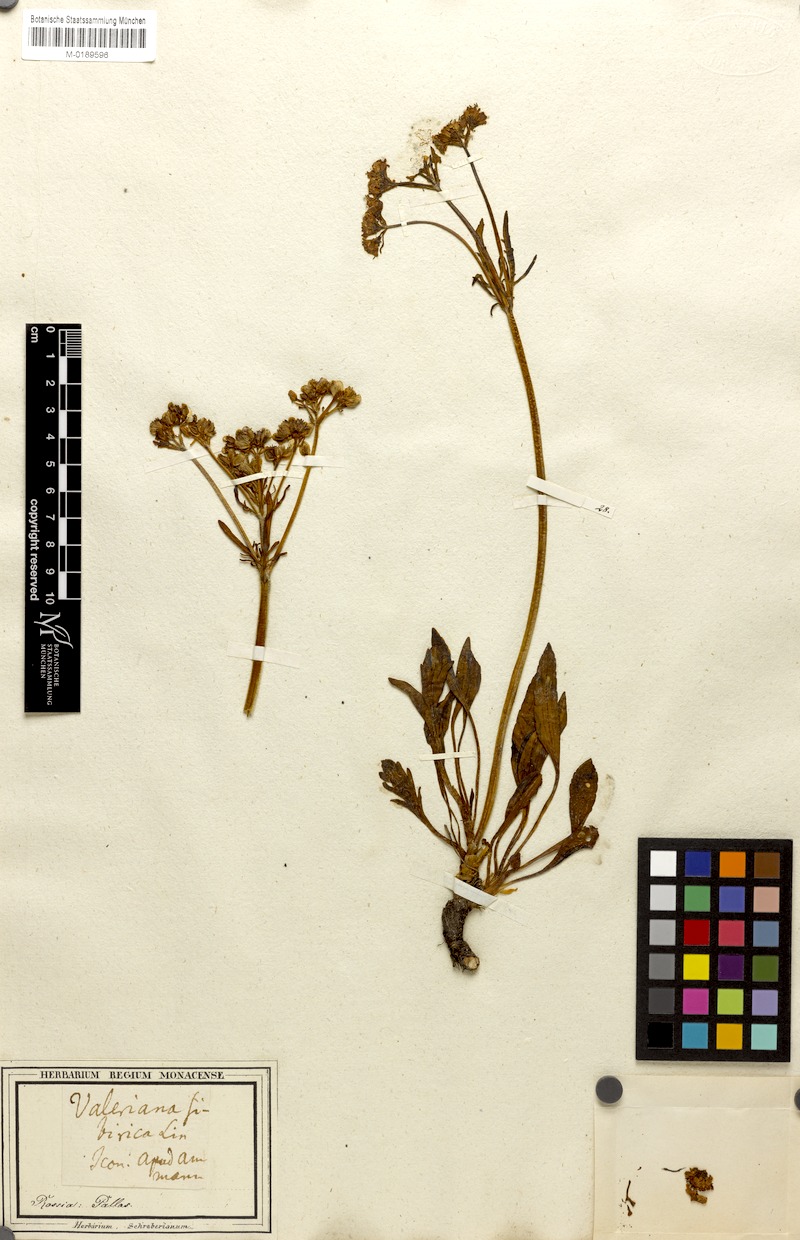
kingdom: Plantae
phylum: Tracheophyta
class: Magnoliopsida
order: Dipsacales
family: Caprifoliaceae
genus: Patrinia
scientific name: Patrinia sibirica
